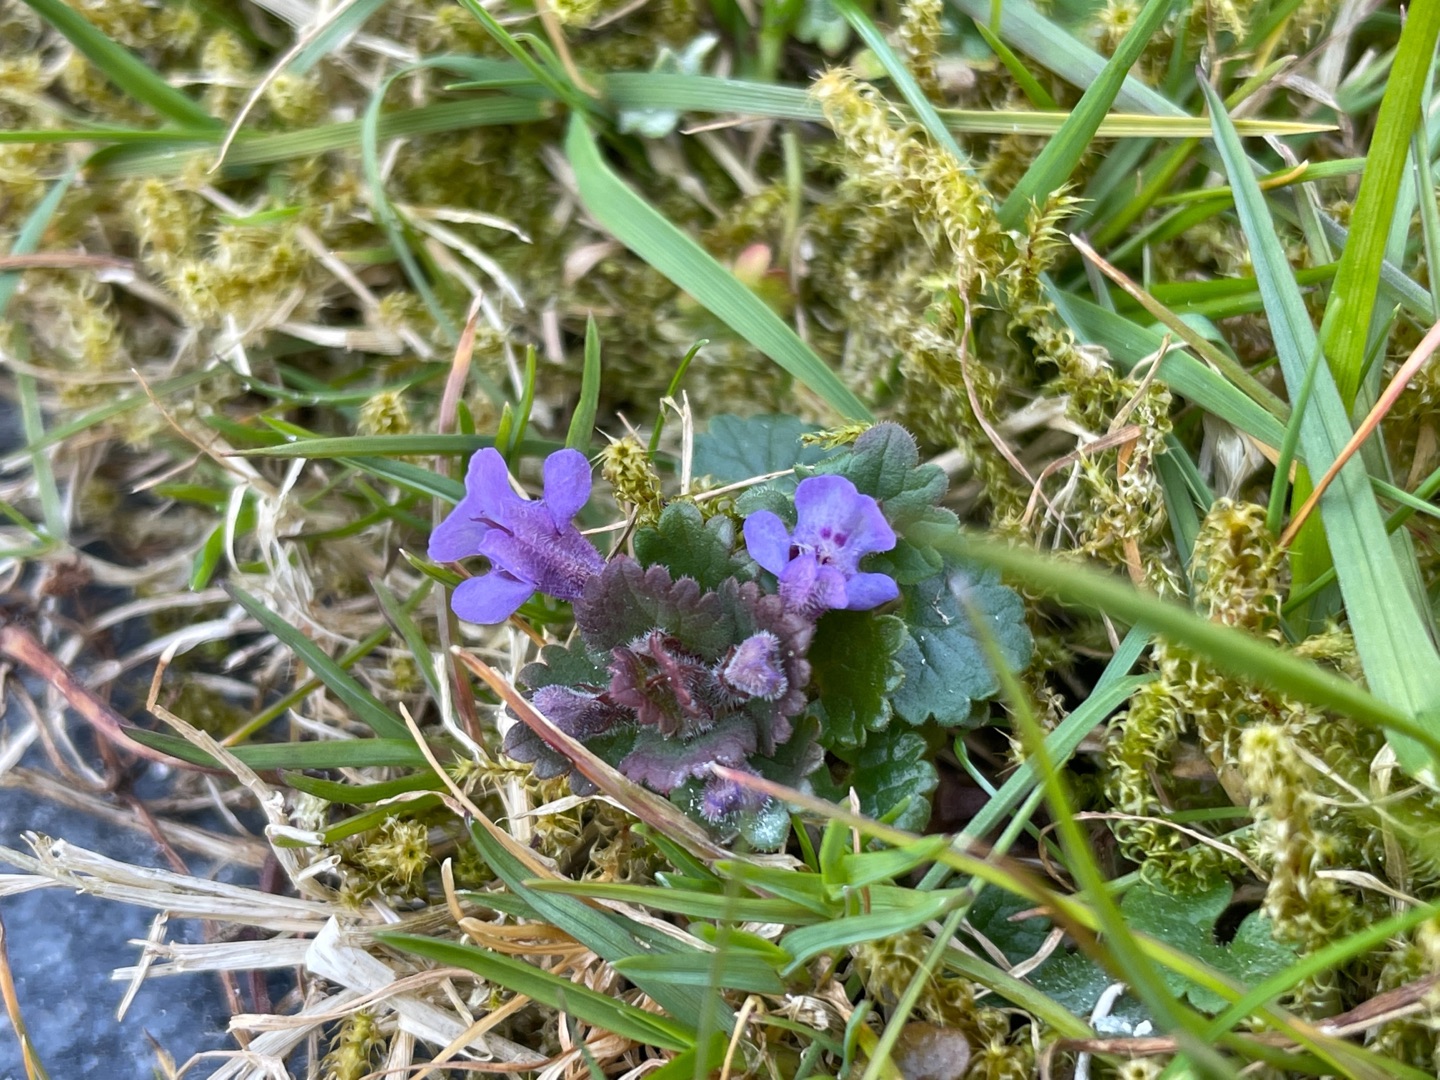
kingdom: Plantae
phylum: Tracheophyta
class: Magnoliopsida
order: Lamiales
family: Lamiaceae
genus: Glechoma
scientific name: Glechoma hederacea
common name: Korsknap
